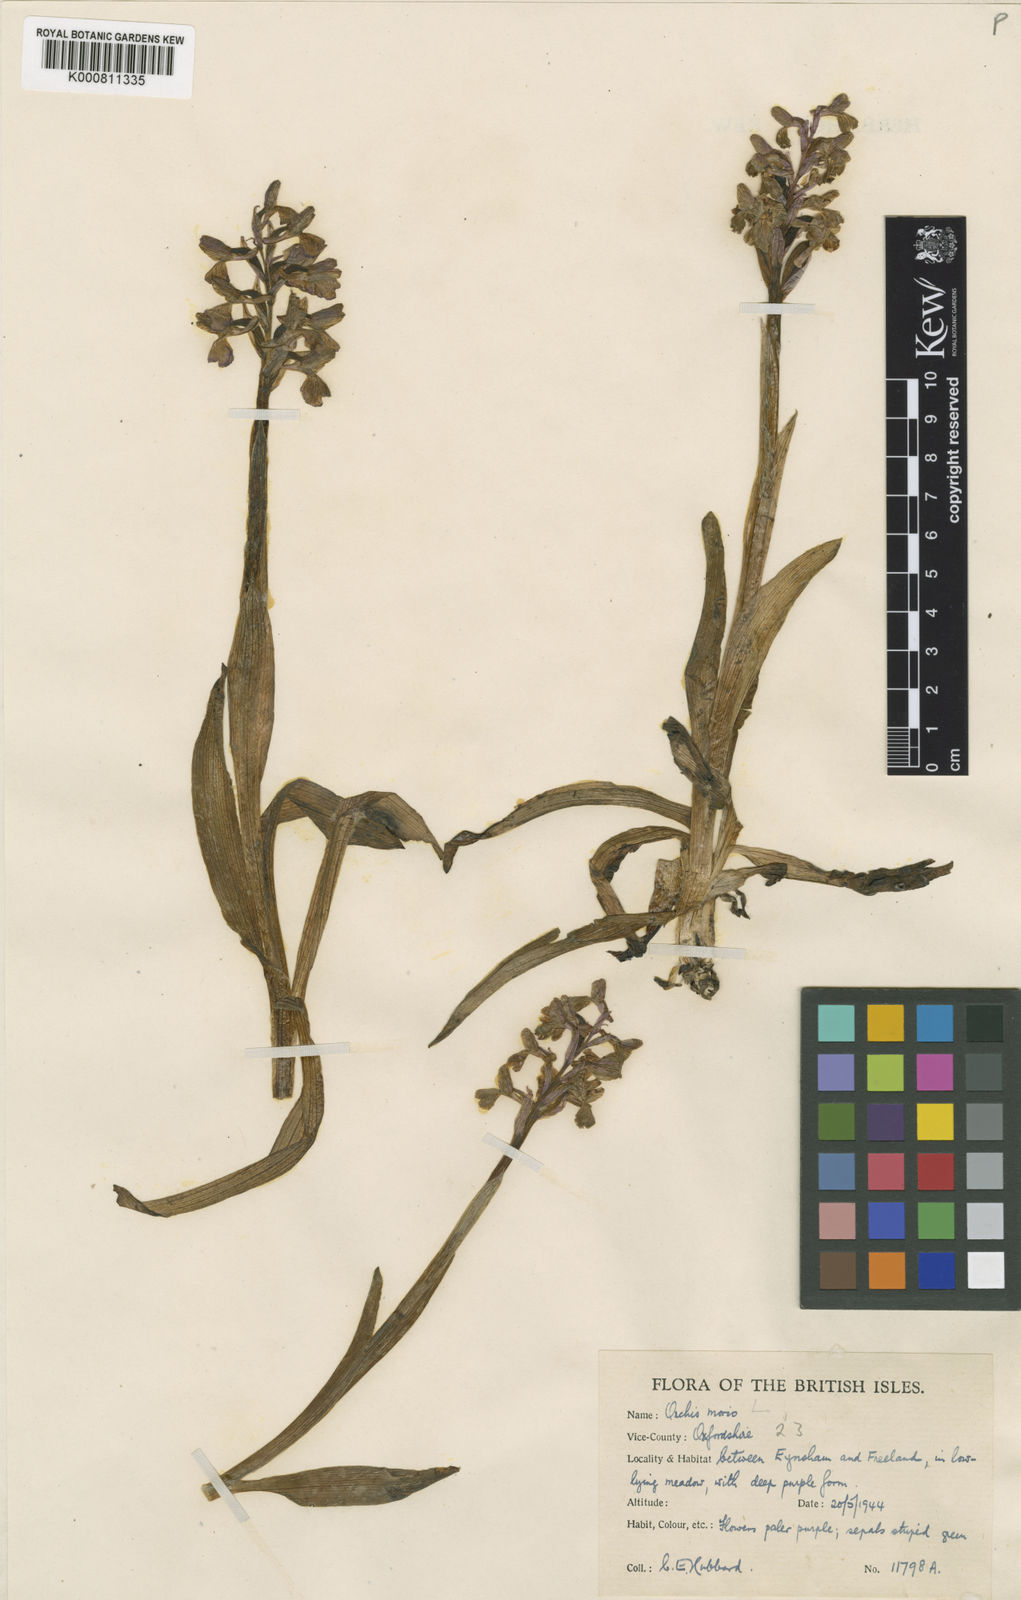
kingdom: Plantae
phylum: Tracheophyta
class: Liliopsida
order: Asparagales
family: Orchidaceae
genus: Anacamptis
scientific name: Anacamptis morio
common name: Green-winged orchid
